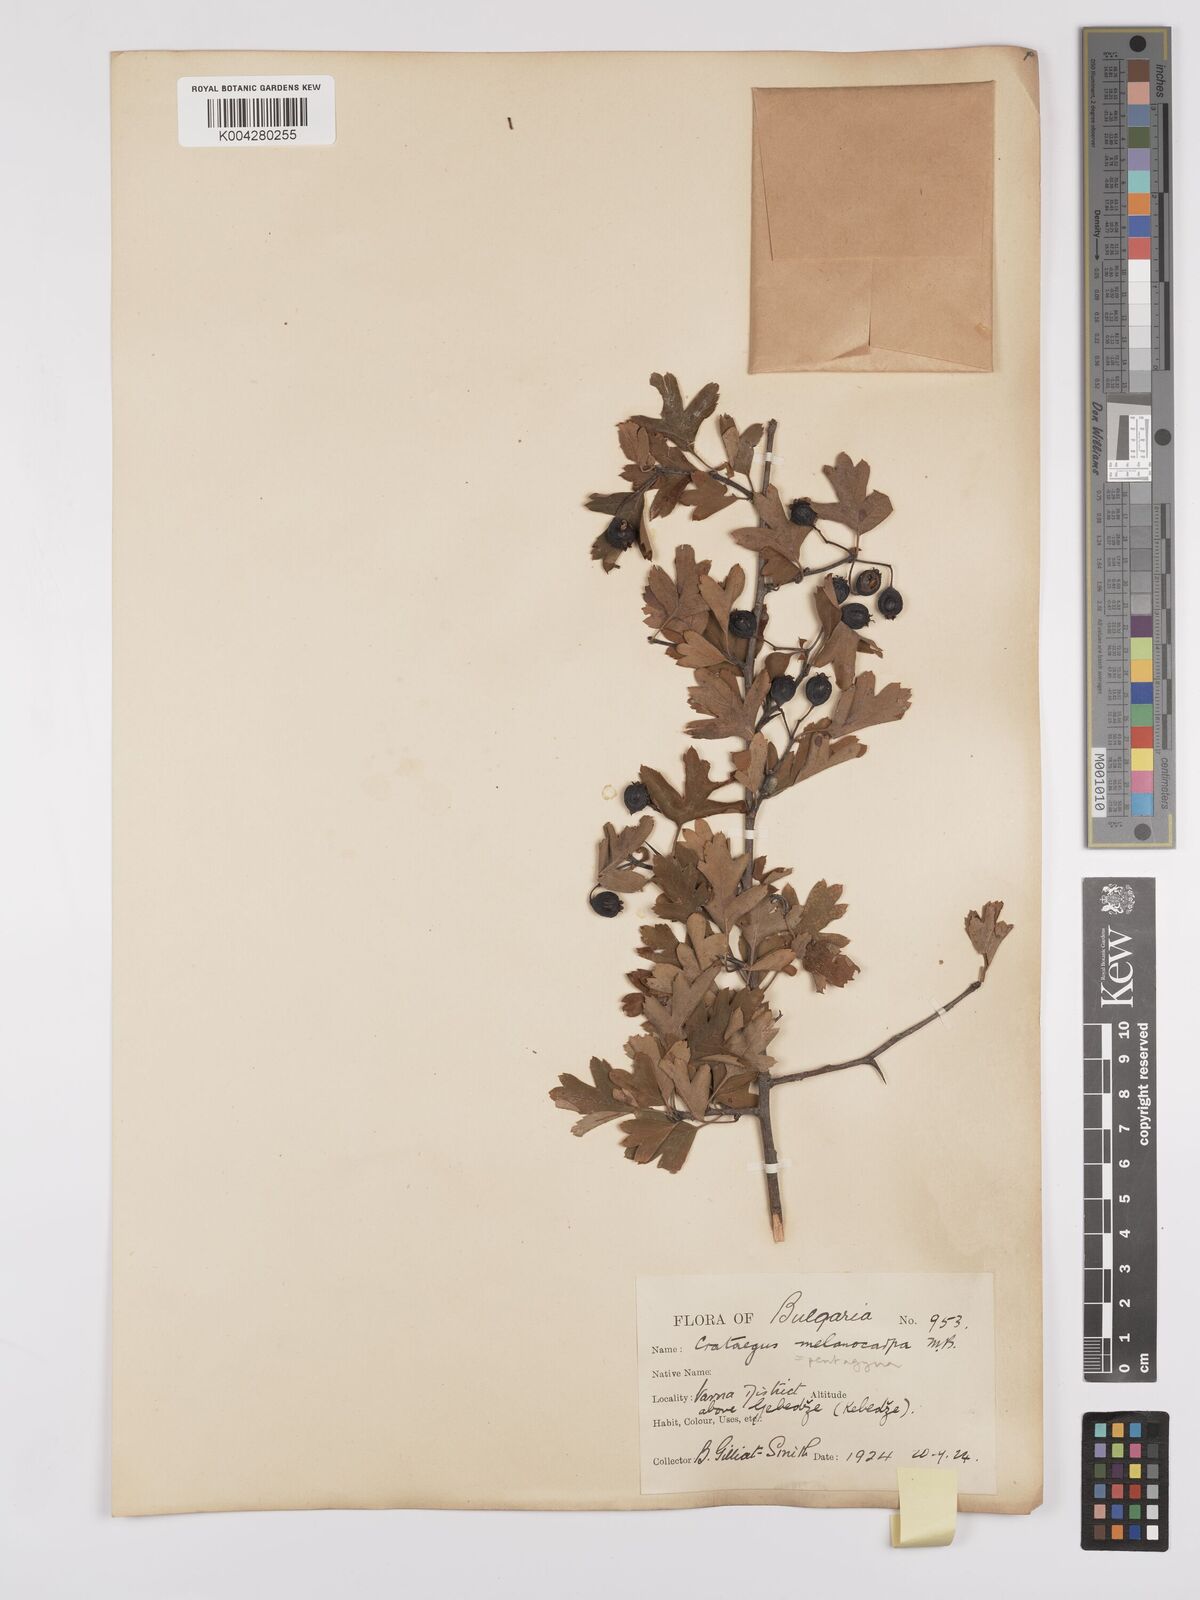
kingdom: Plantae
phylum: Tracheophyta
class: Magnoliopsida
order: Rosales
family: Rosaceae
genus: Crataegus
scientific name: Crataegus pentagyna
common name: Small-flowered black hawthorn
